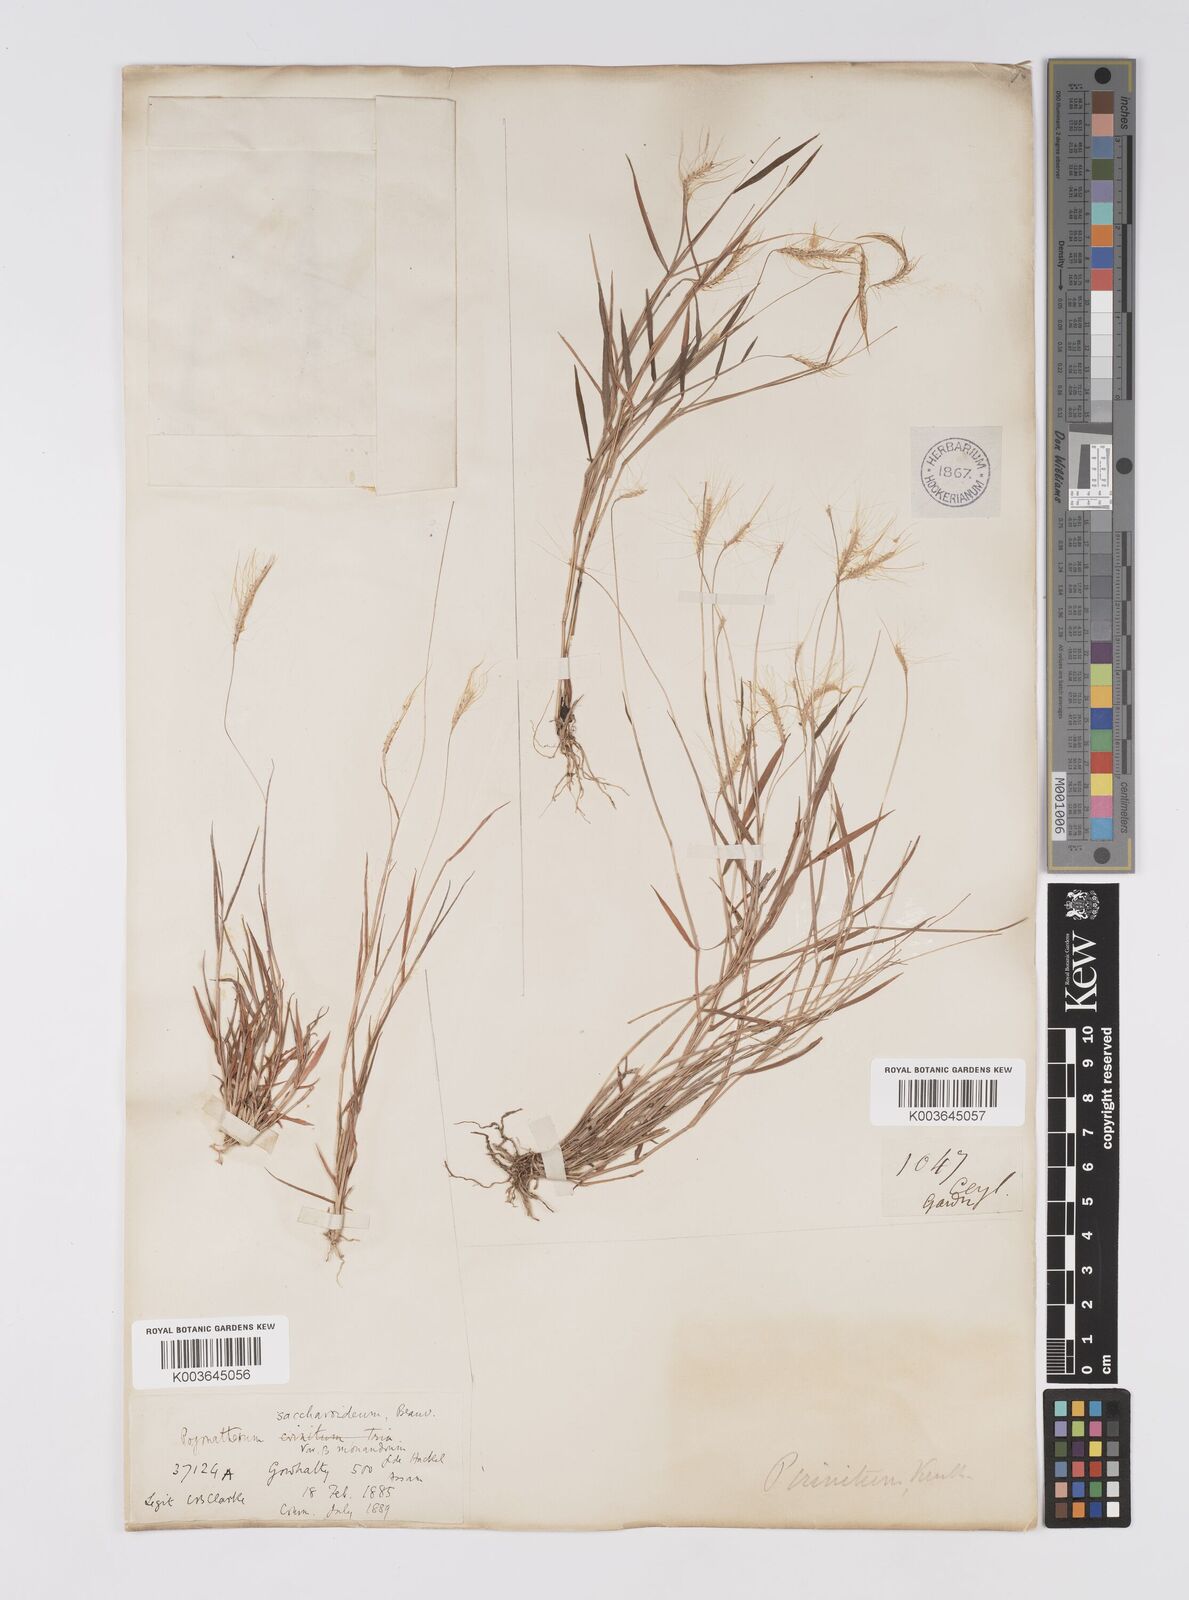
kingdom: Plantae
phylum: Tracheophyta
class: Liliopsida
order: Poales
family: Poaceae
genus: Pogonatherum
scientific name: Pogonatherum crinitum
